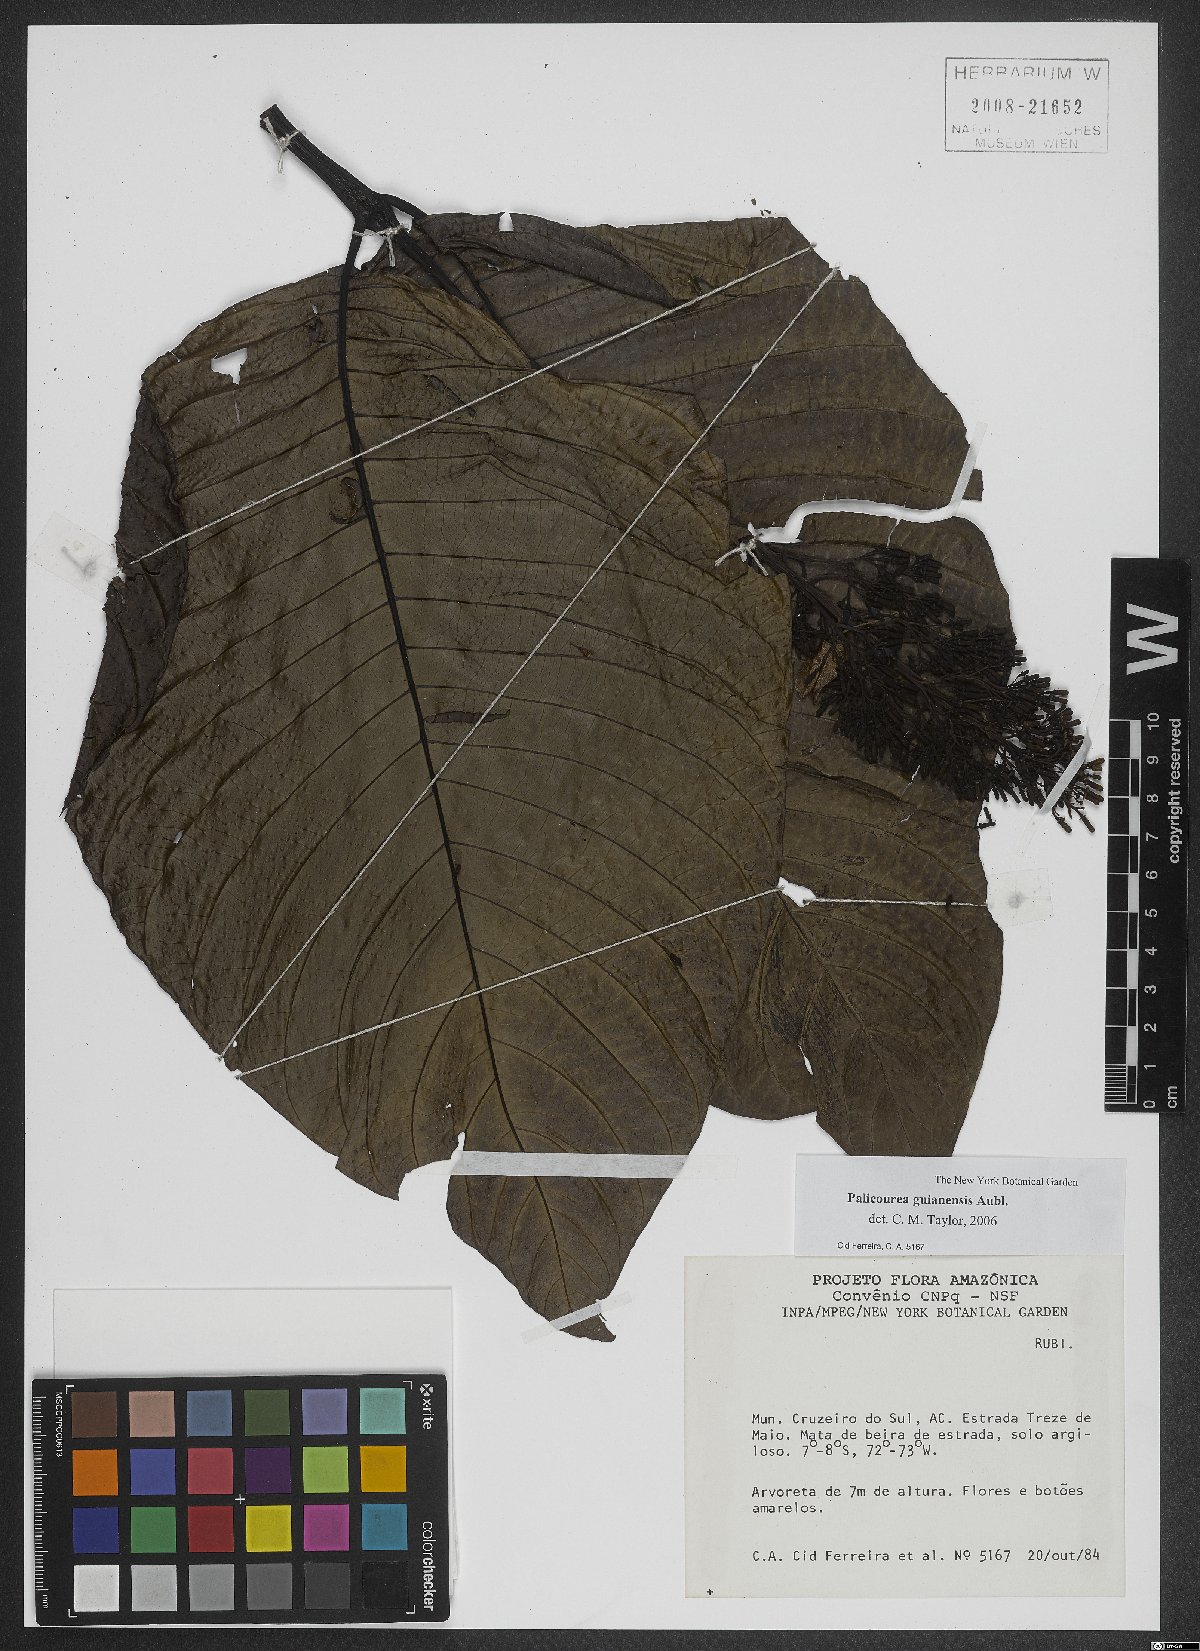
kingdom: Plantae
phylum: Tracheophyta
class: Magnoliopsida
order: Gentianales
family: Rubiaceae
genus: Palicourea
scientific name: Palicourea guianensis
